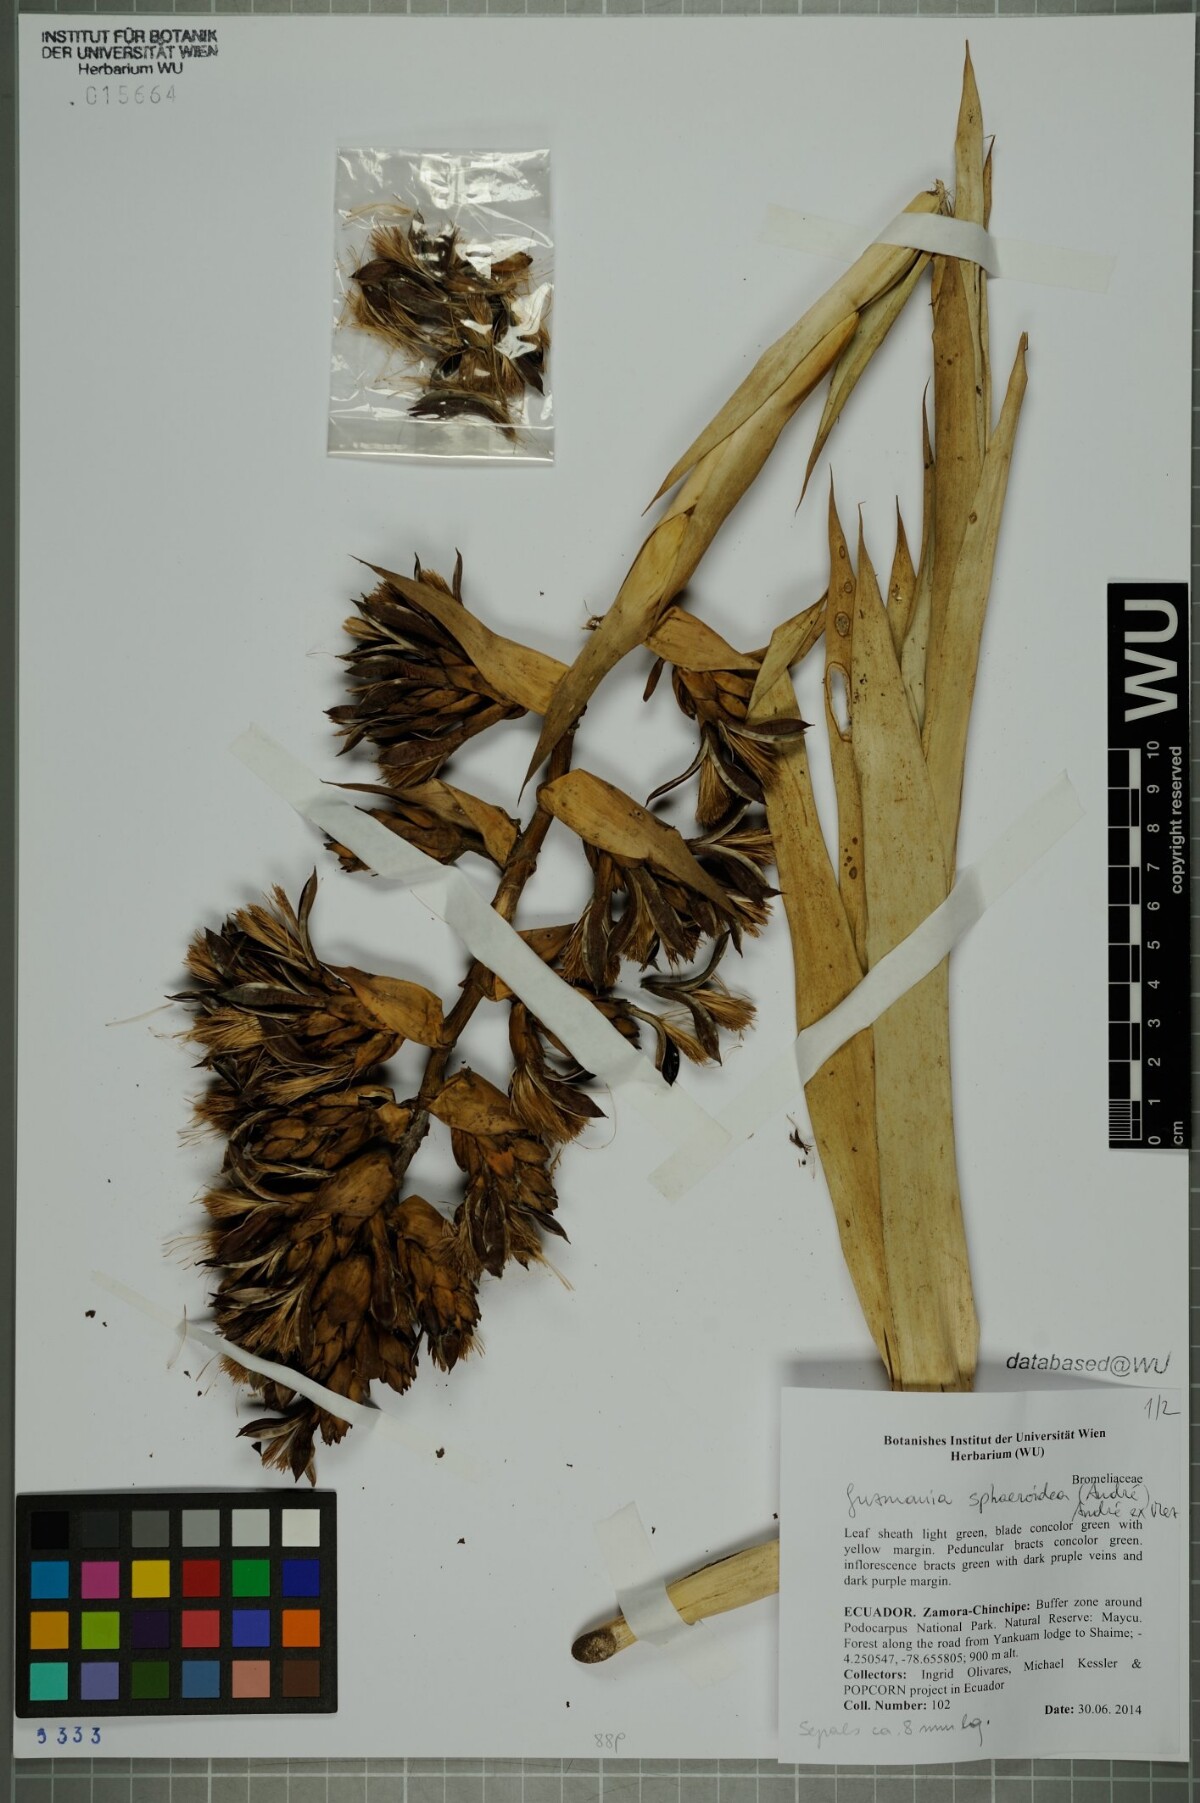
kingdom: Plantae
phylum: Tracheophyta
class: Liliopsida
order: Poales
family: Bromeliaceae
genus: Guzmania
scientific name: Guzmania sphaeroidea
